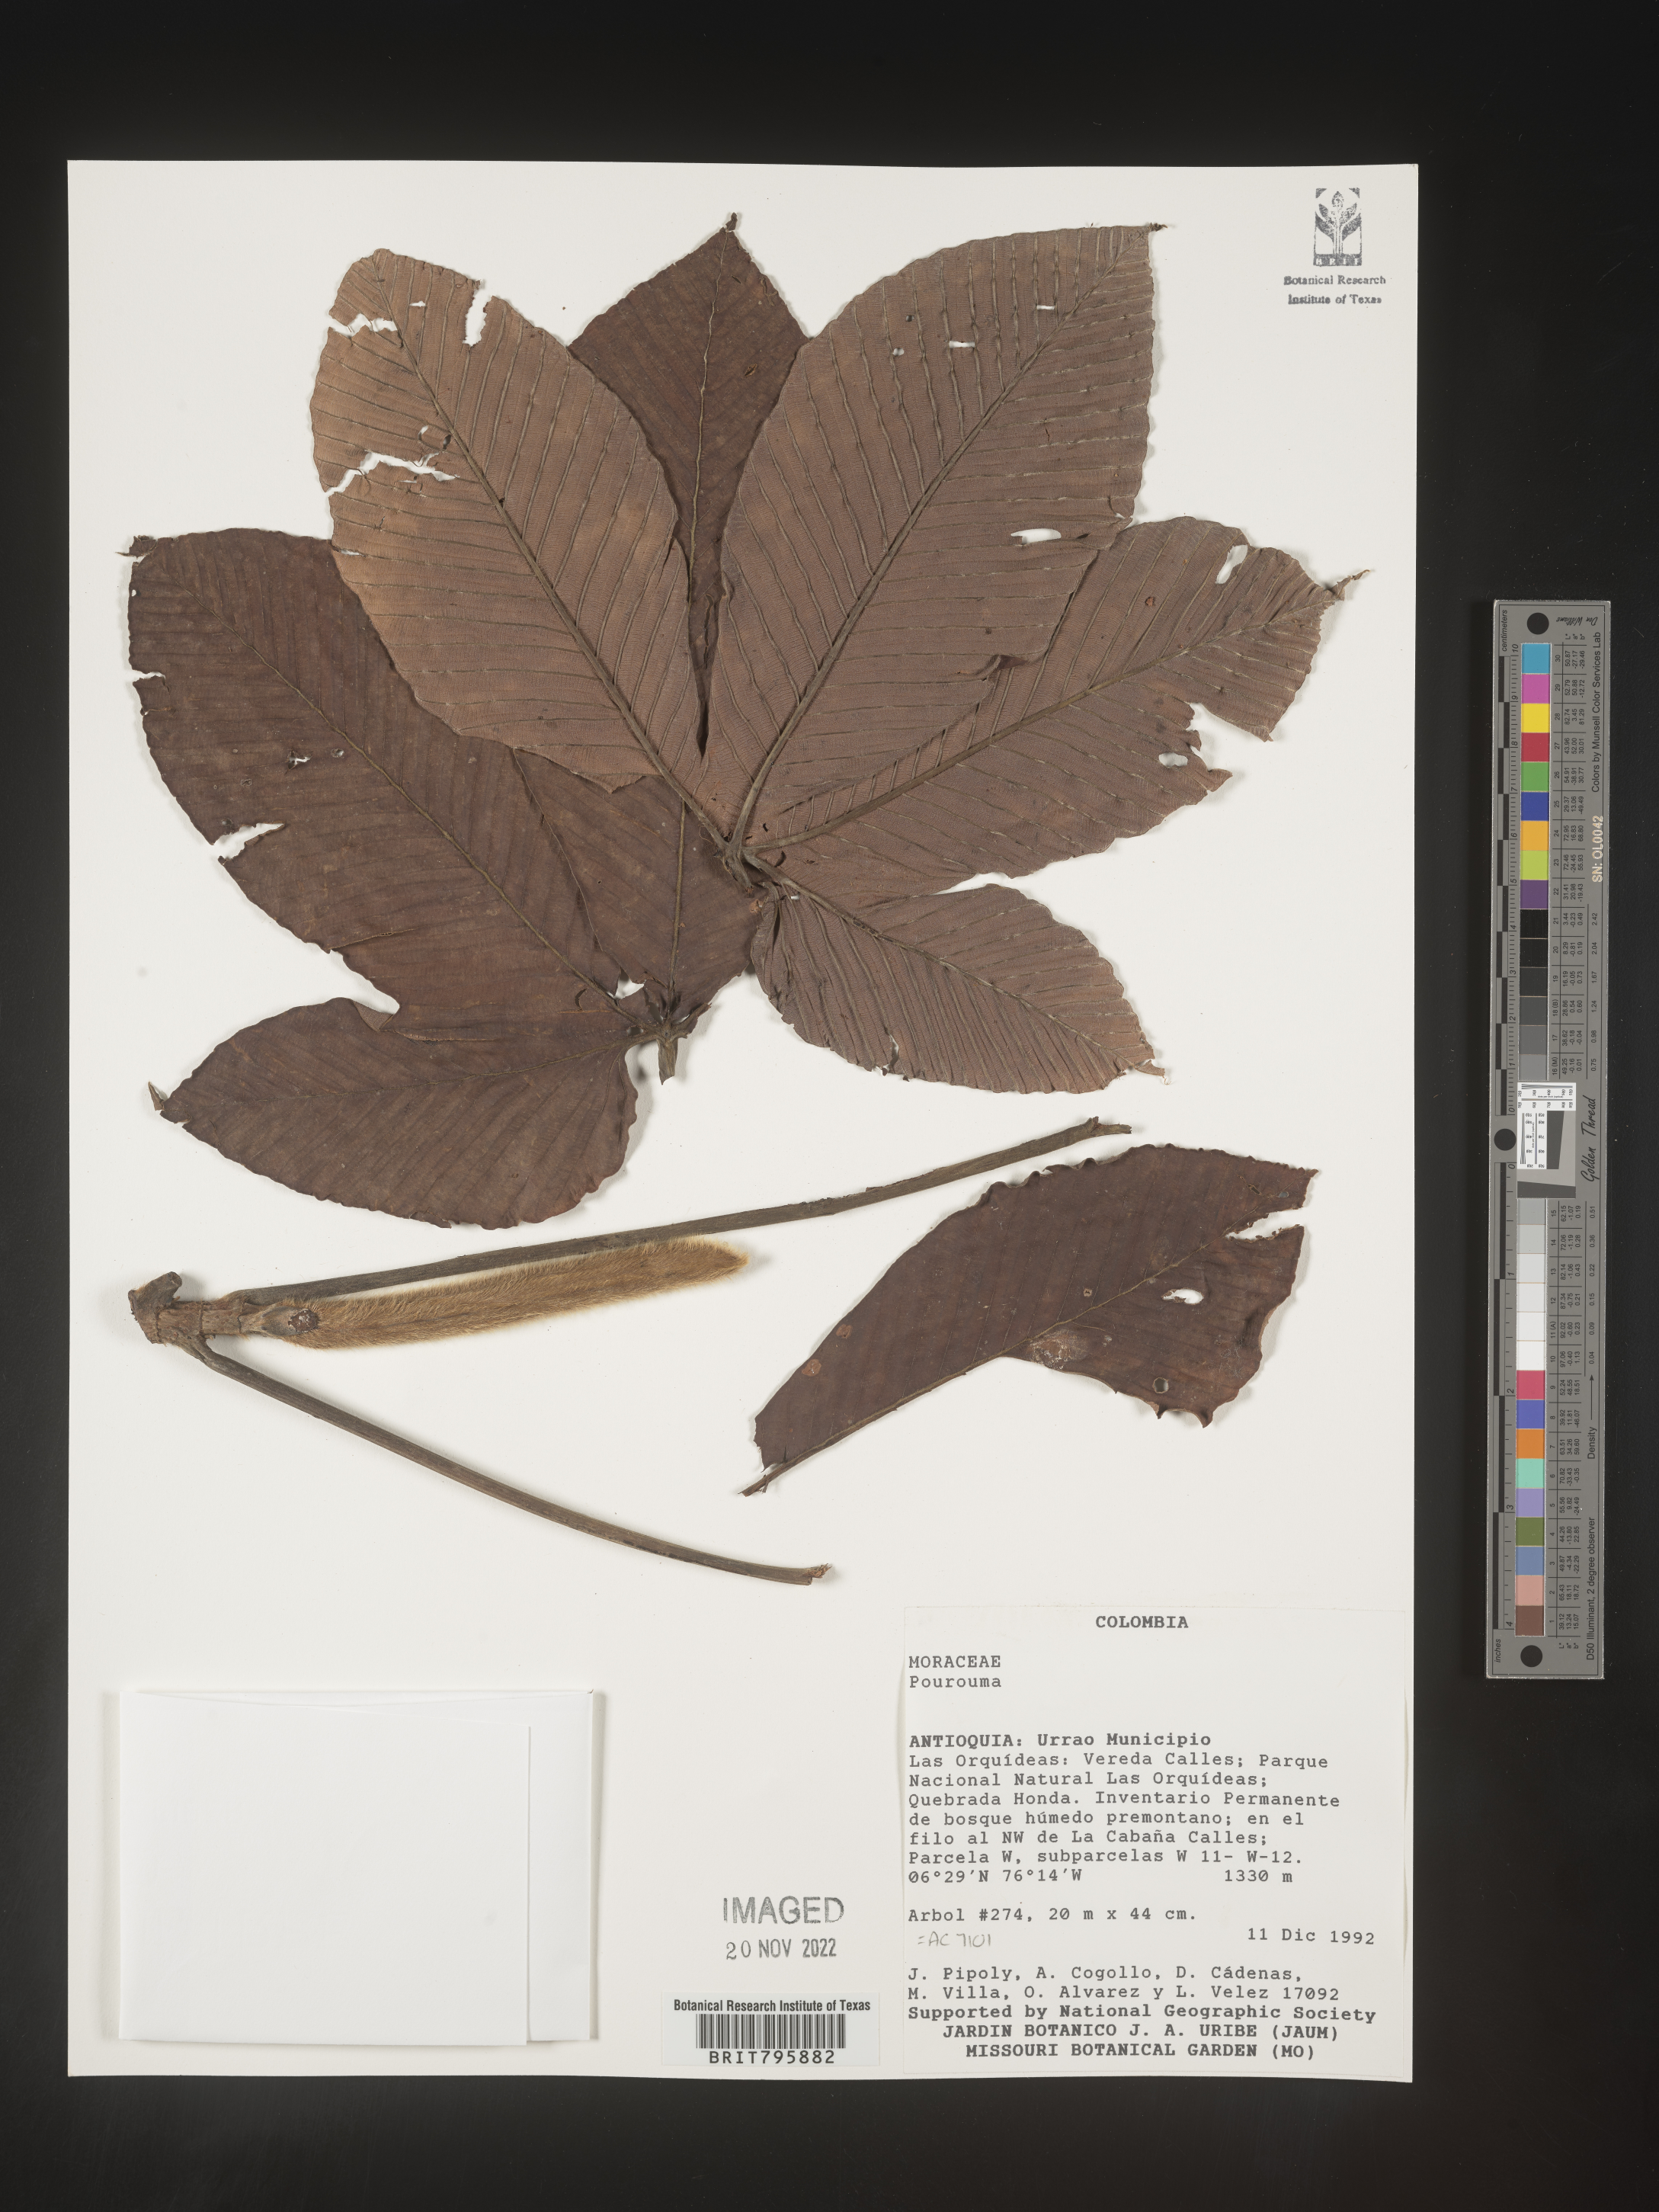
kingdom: Plantae
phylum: Tracheophyta
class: Magnoliopsida
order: Rosales
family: Urticaceae
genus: Pourouma
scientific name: Pourouma
